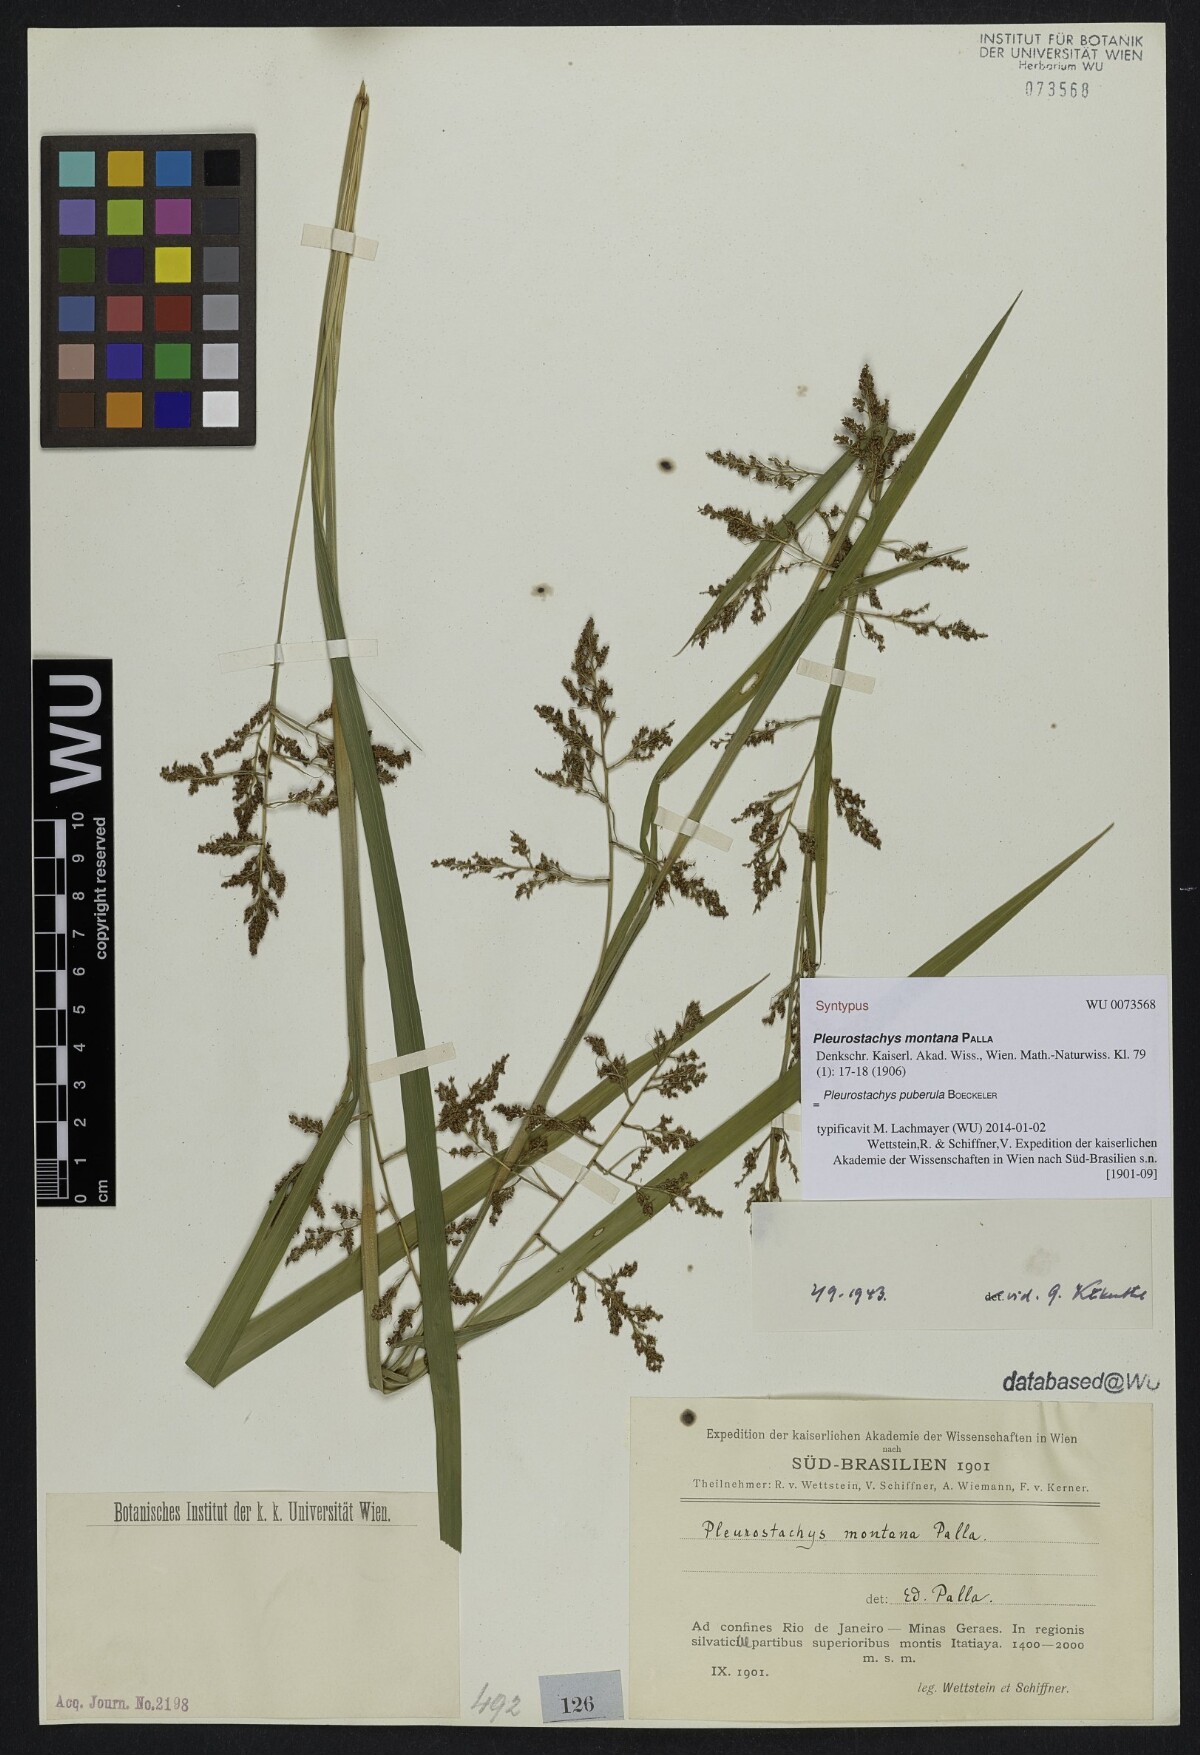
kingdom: Plantae
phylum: Tracheophyta
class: Liliopsida
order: Poales
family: Cyperaceae
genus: Rhynchospora
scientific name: Rhynchospora orbignyana
